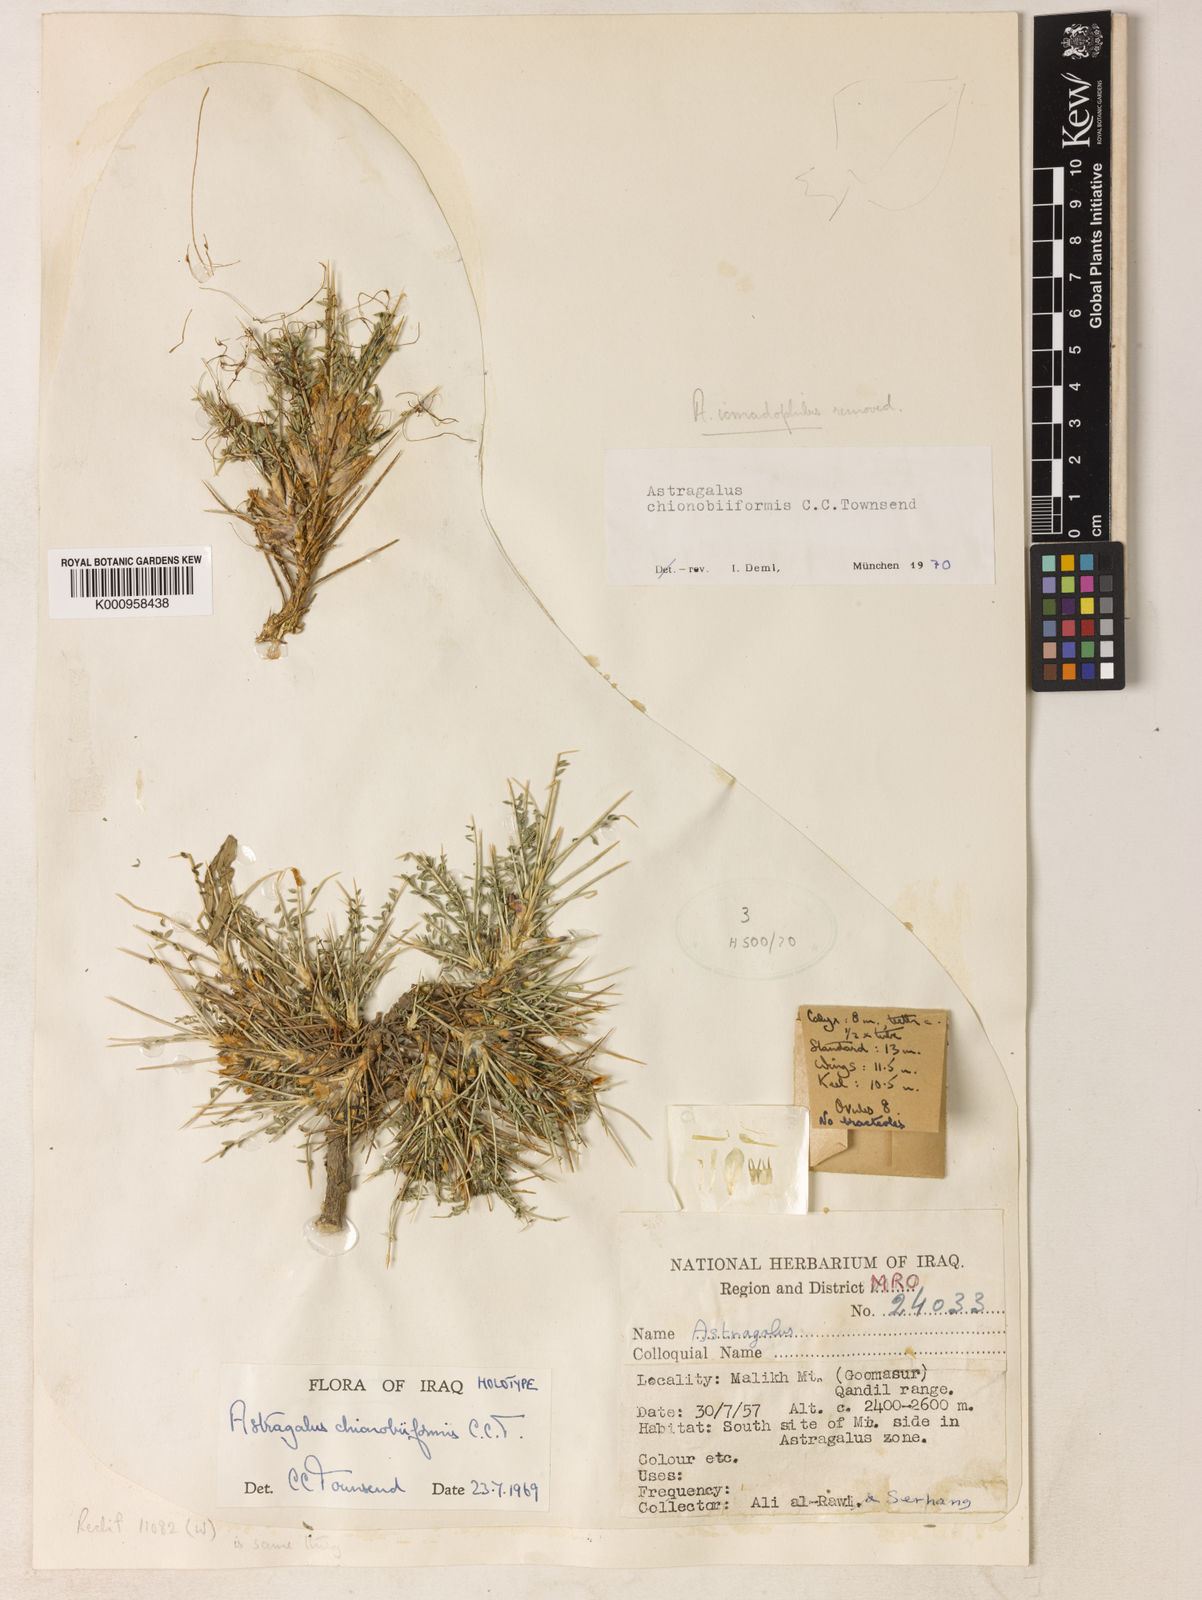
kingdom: Plantae
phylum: Tracheophyta
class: Magnoliopsida
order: Fabales
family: Fabaceae
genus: Astragalus
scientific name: Astragalus chionobiiformis
